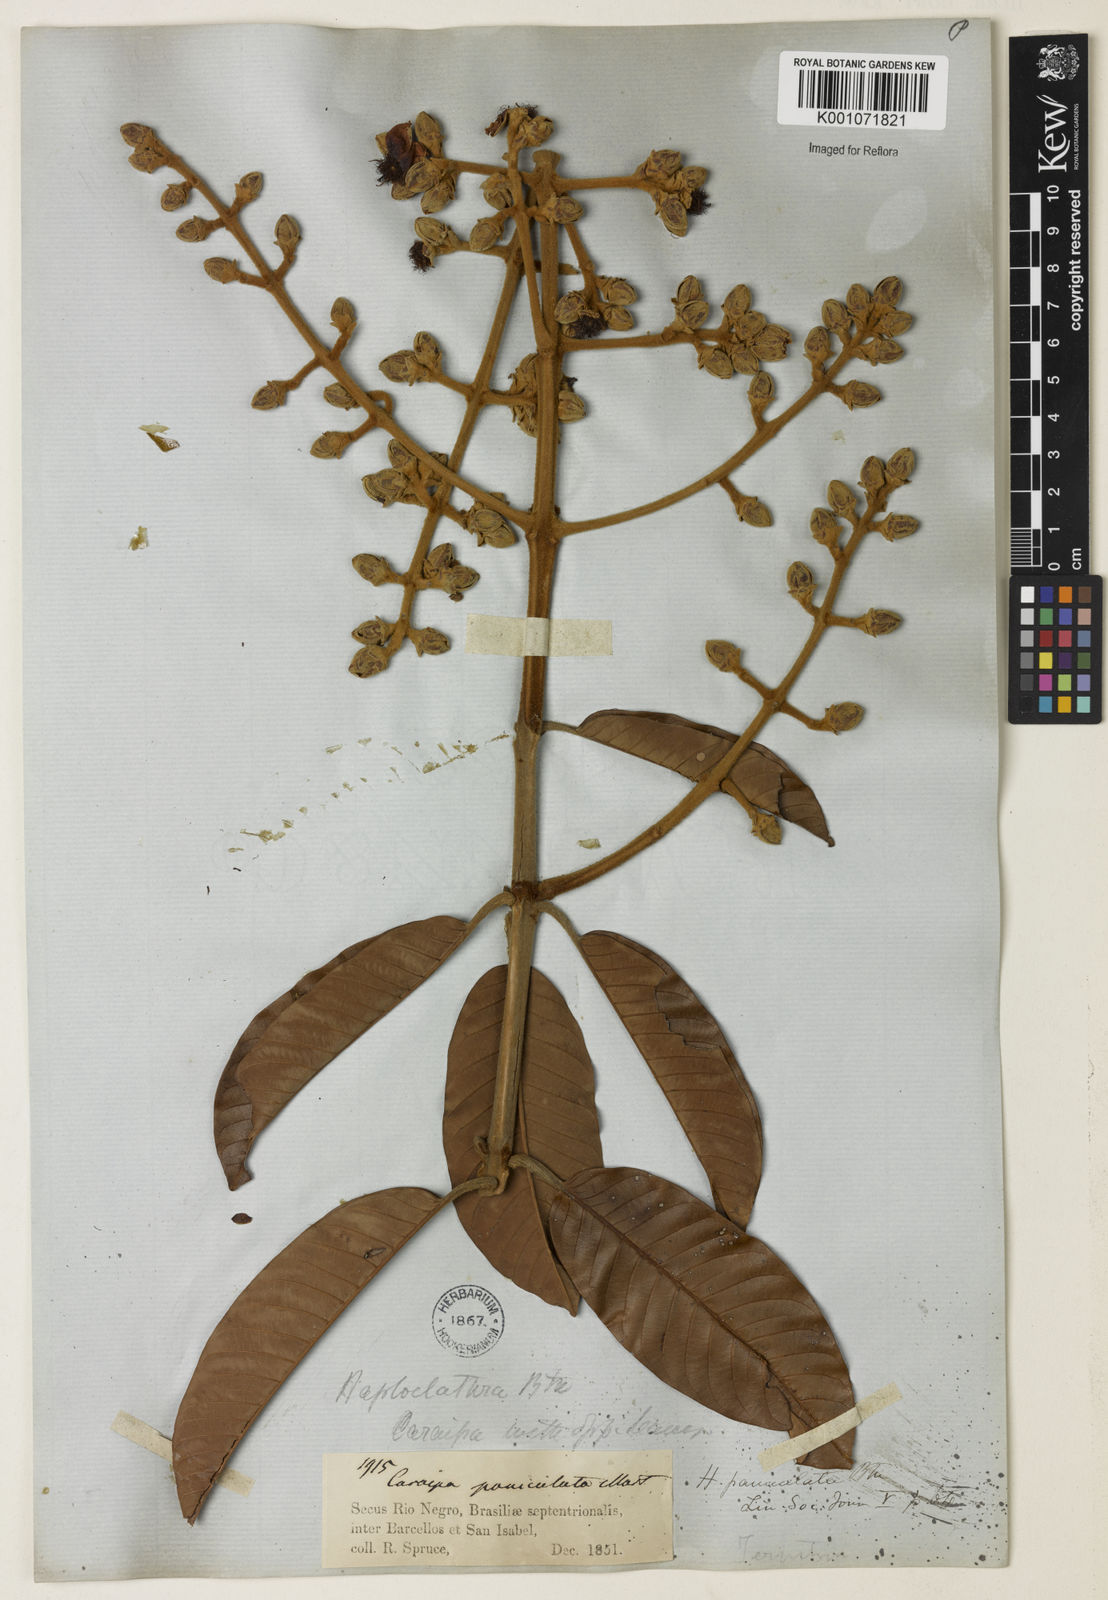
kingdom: Plantae
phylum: Tracheophyta
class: Magnoliopsida
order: Malpighiales
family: Calophyllaceae
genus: Haploclathra
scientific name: Haploclathra paniculata
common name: Red-wood
